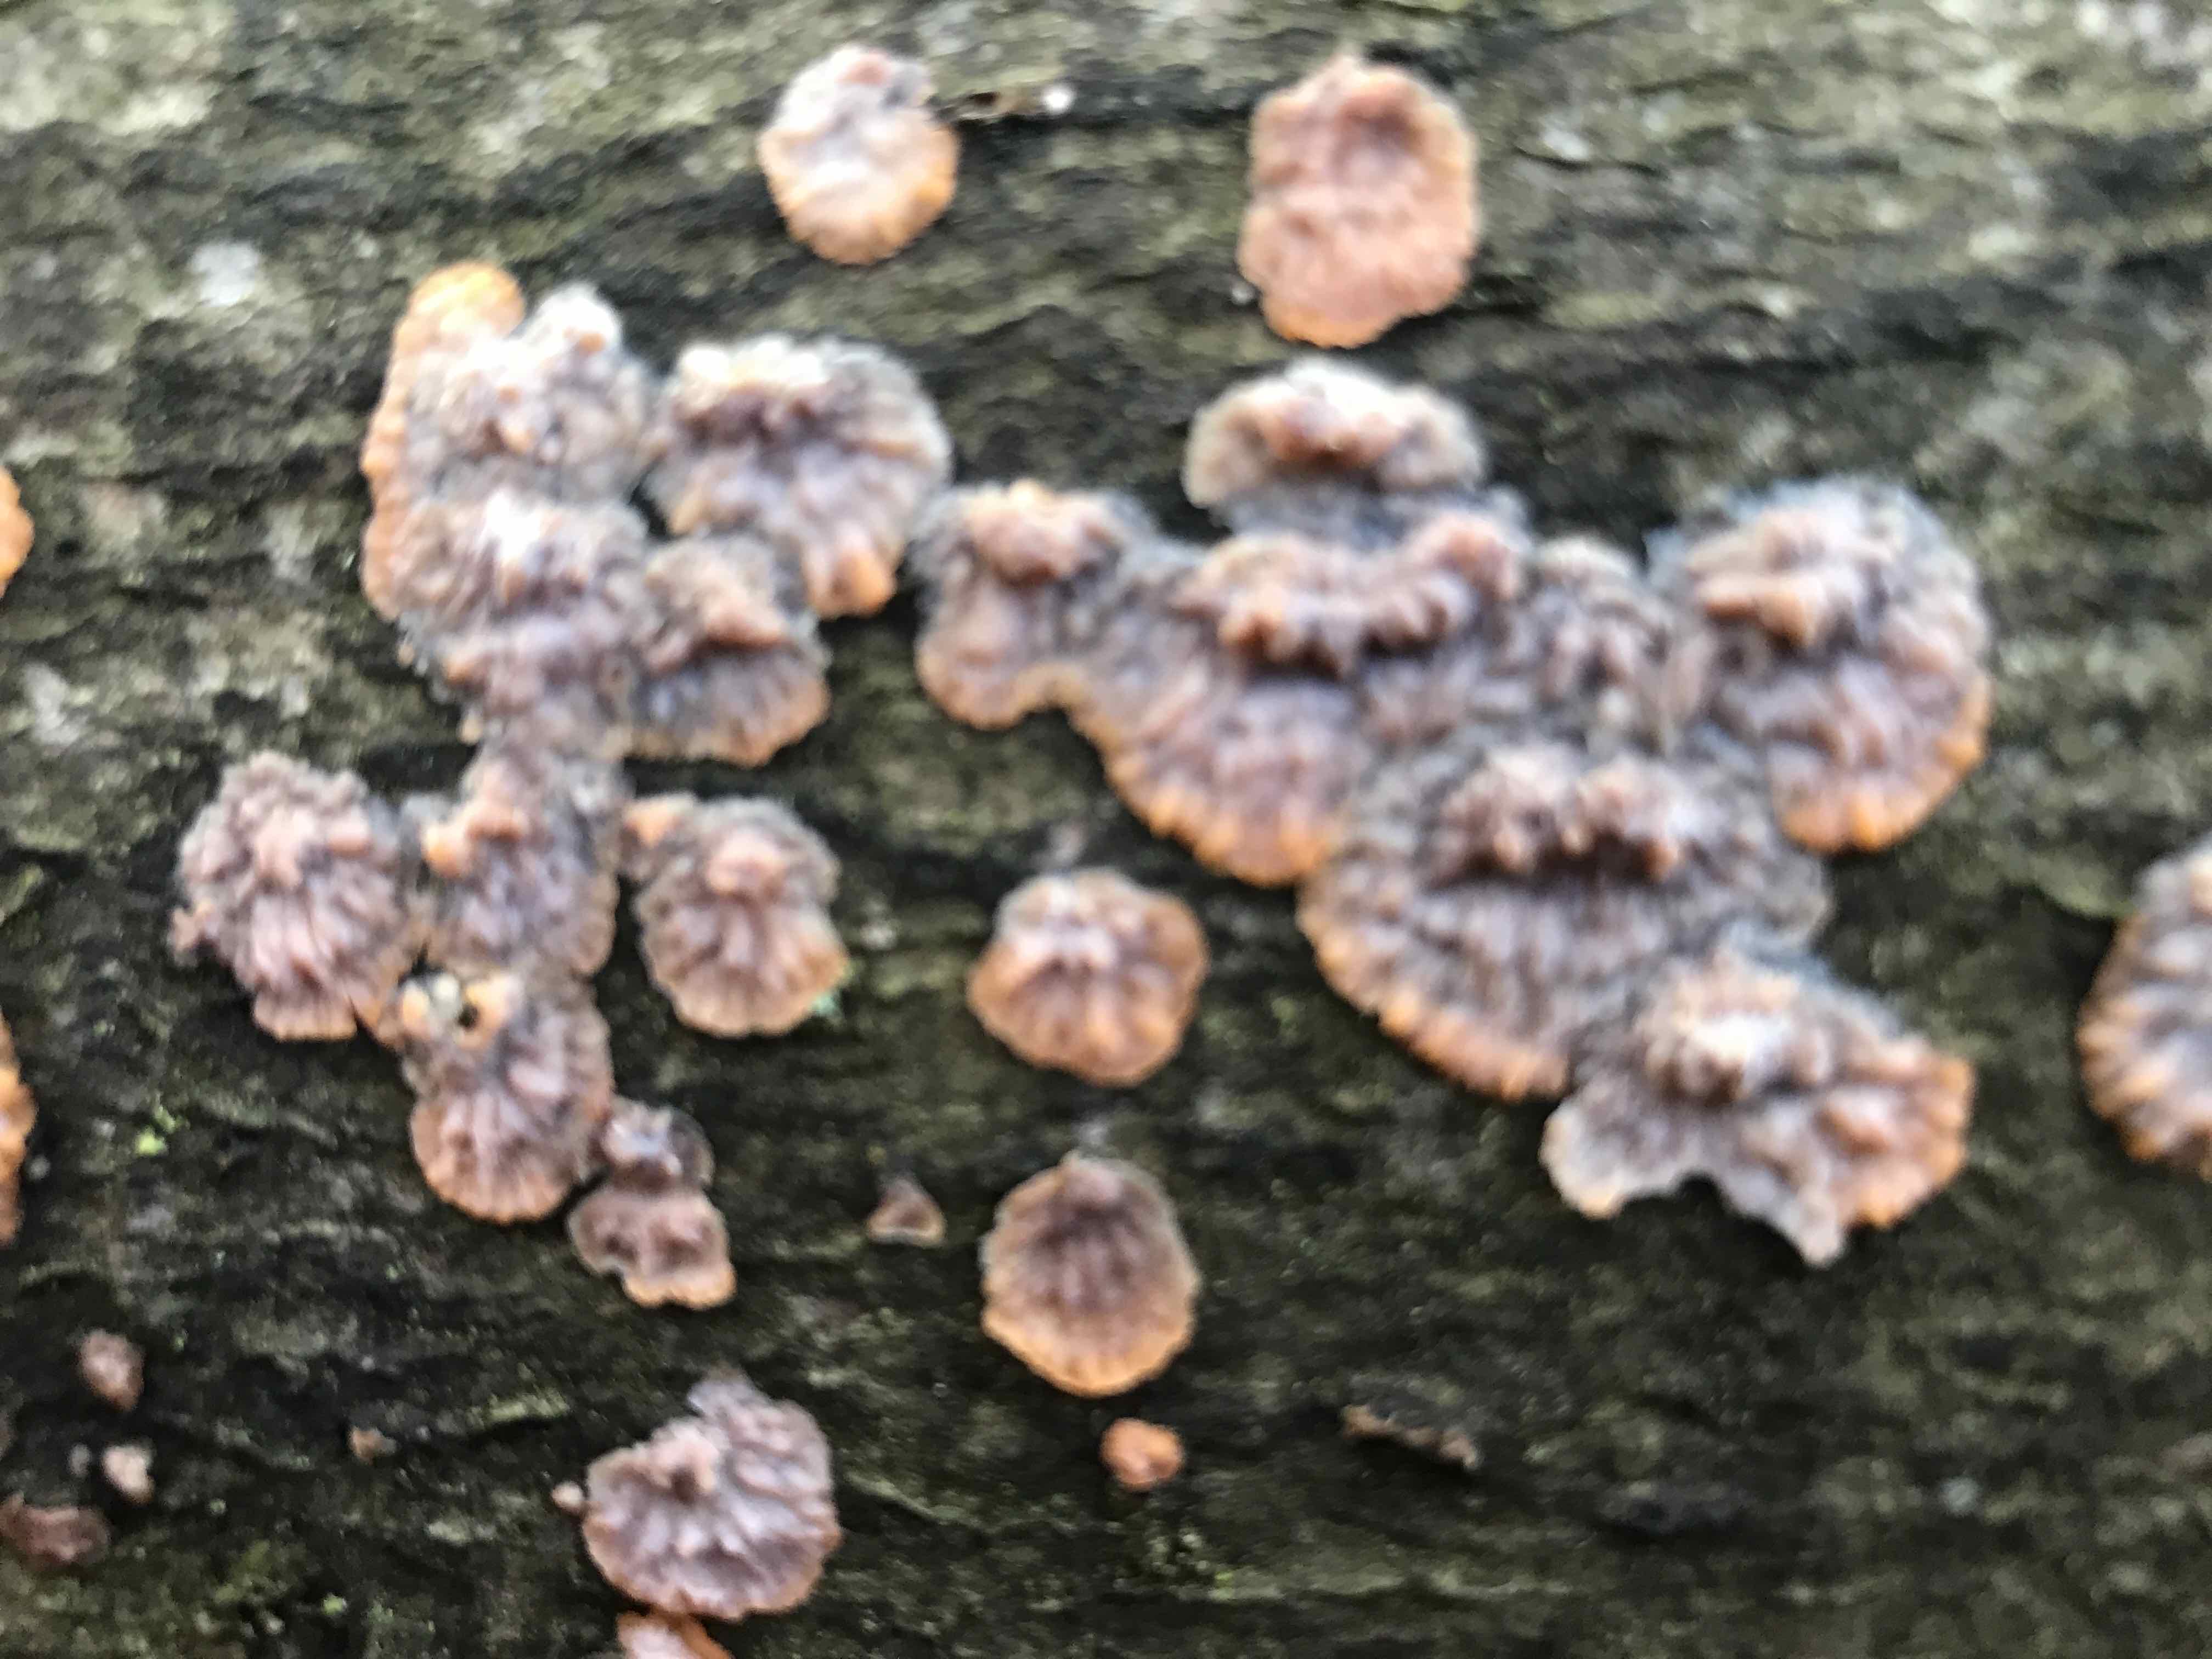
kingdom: Fungi
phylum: Basidiomycota
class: Agaricomycetes
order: Polyporales
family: Meruliaceae
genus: Phlebia
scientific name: Phlebia radiata
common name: stråle-åresvamp
